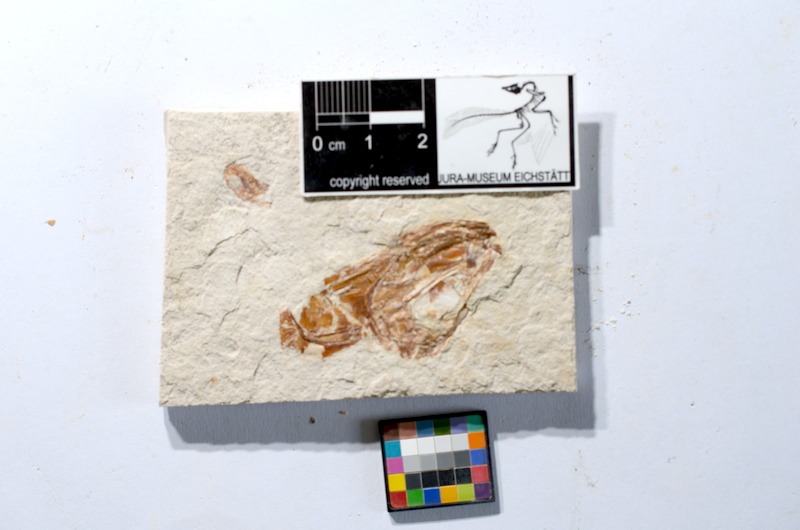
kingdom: Animalia
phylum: Chordata
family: Ascalaboidae
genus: Tharsis
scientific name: Tharsis dubius
